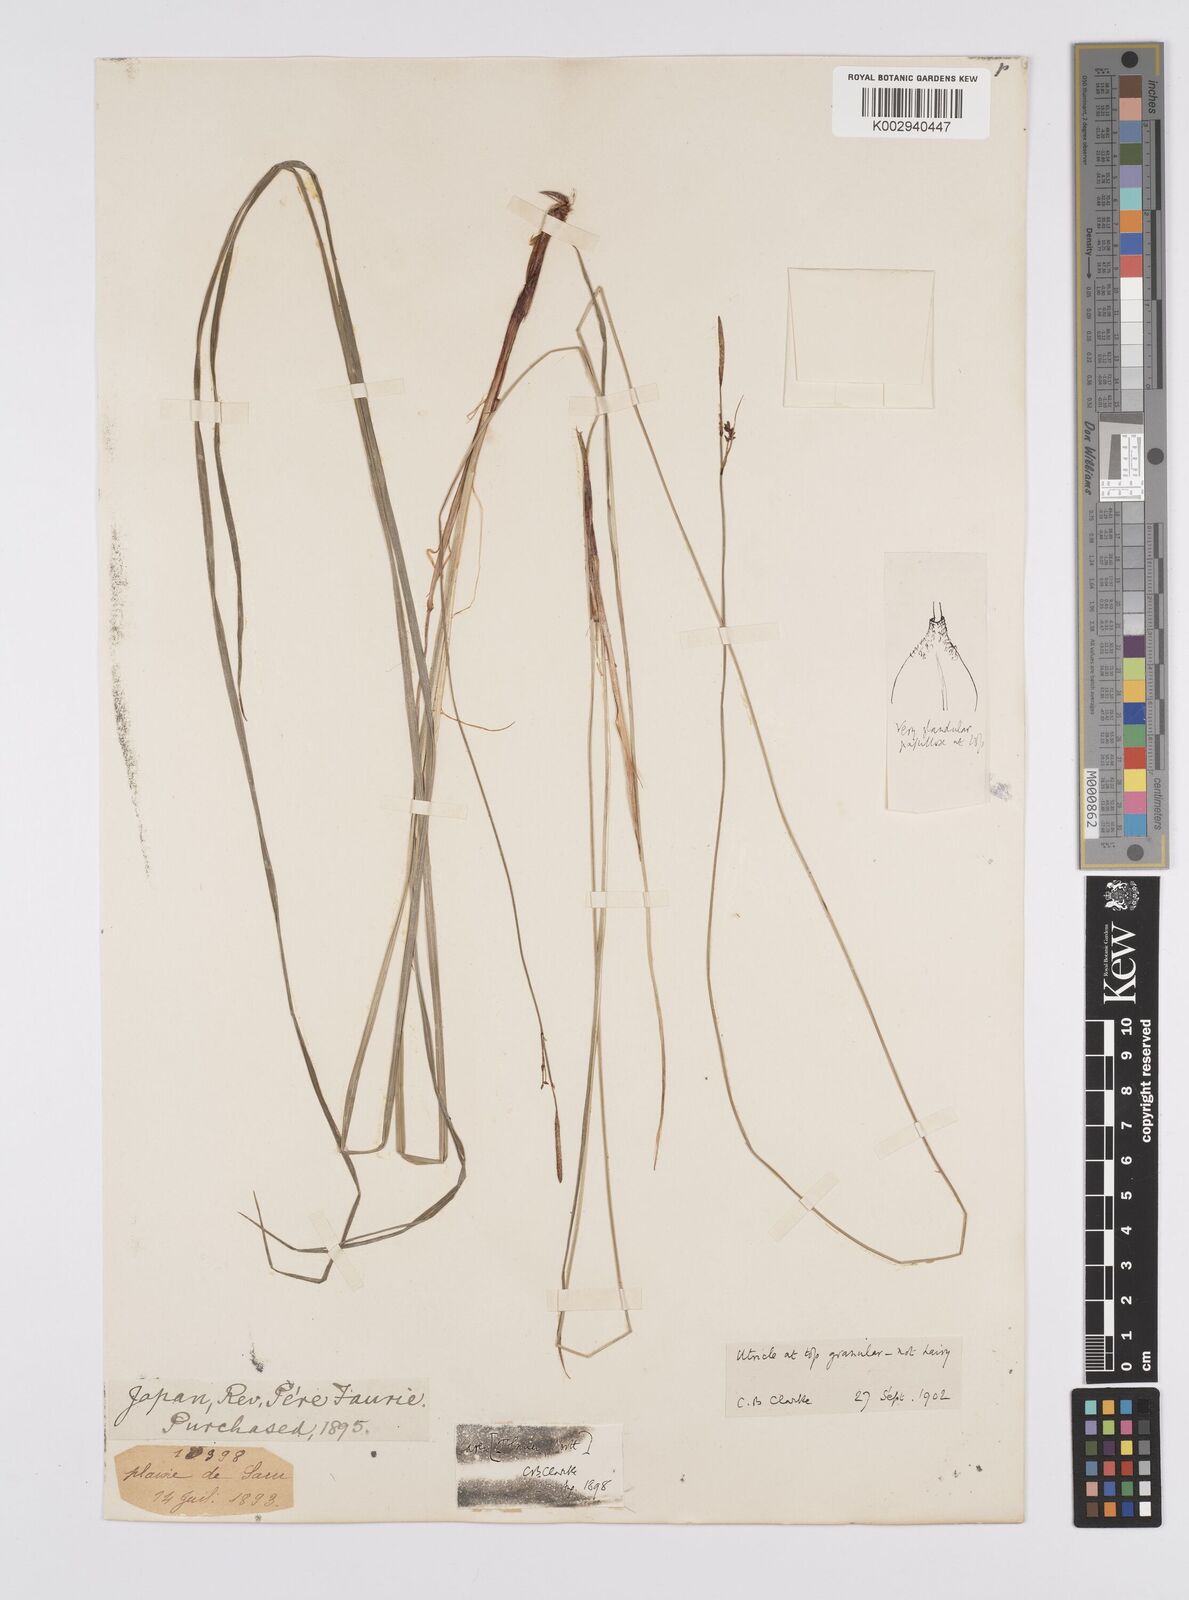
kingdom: Plantae
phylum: Tracheophyta
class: Liliopsida
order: Poales
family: Cyperaceae
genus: Carex
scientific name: Carex augustinowiczii
